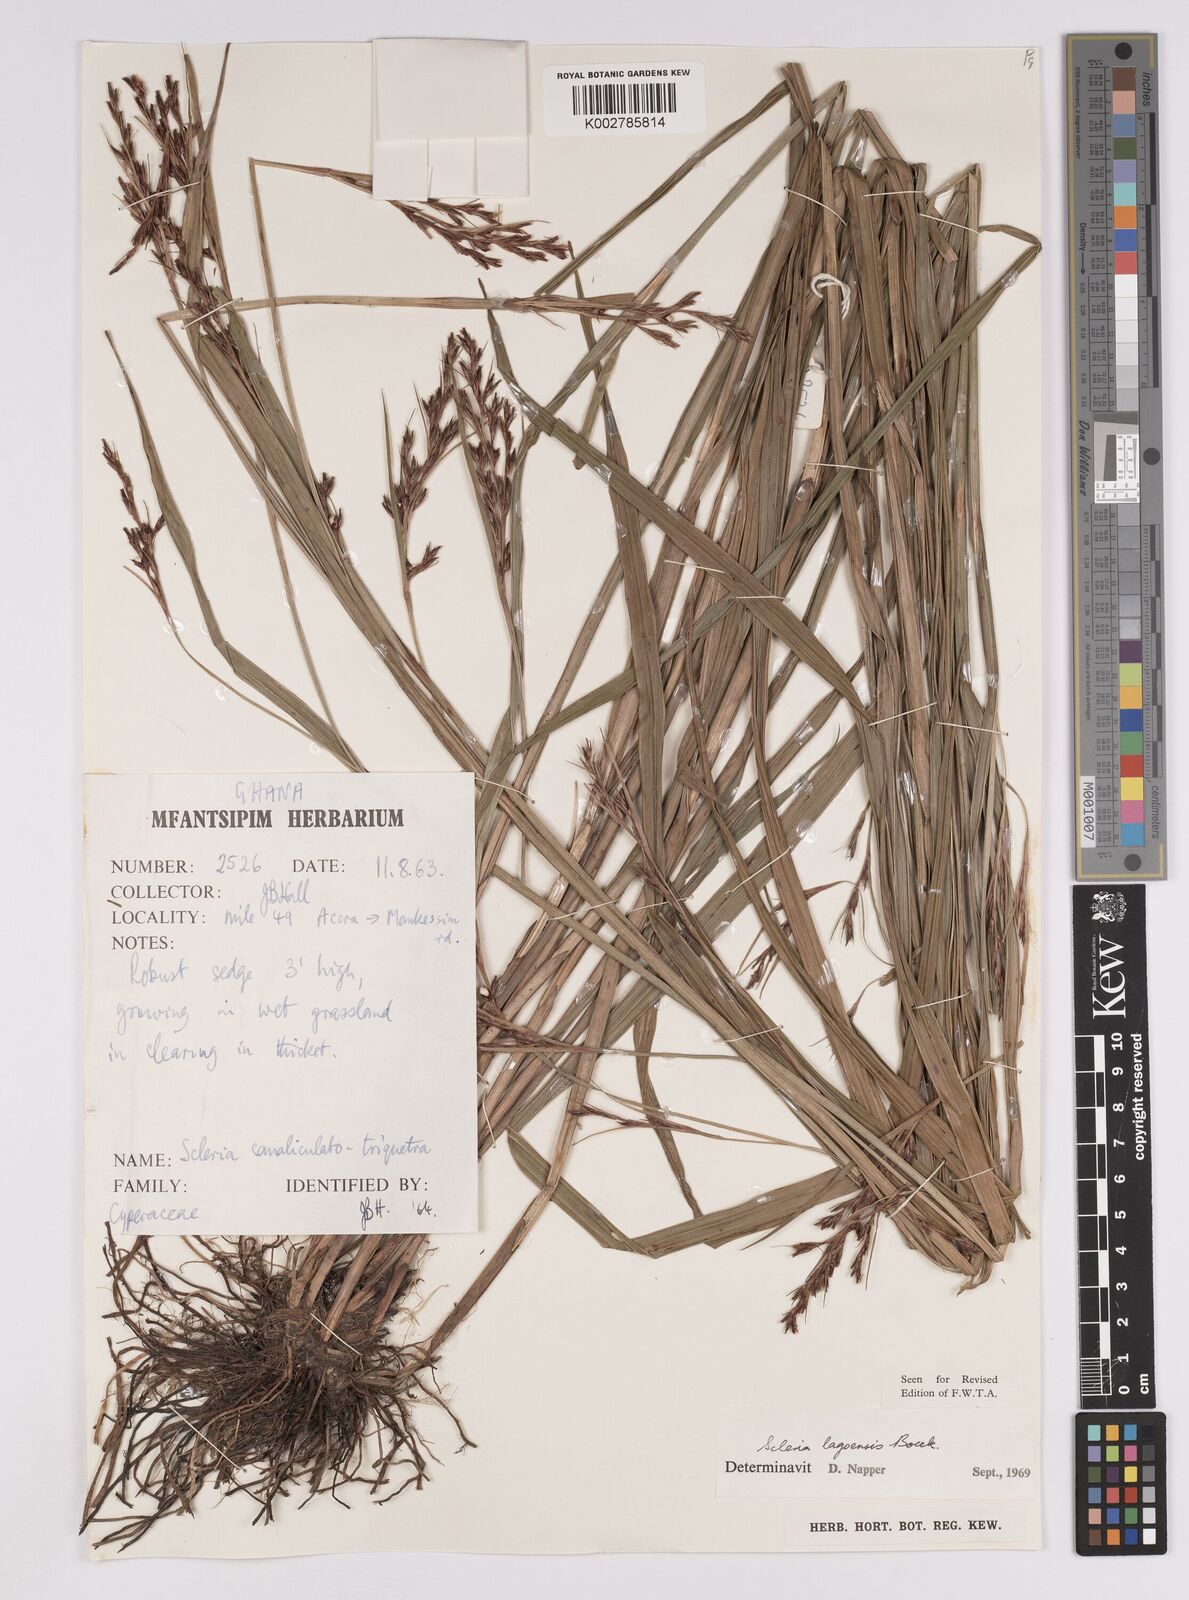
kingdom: Plantae
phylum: Tracheophyta
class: Liliopsida
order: Poales
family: Cyperaceae
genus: Scleria
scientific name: Scleria lagoensis
